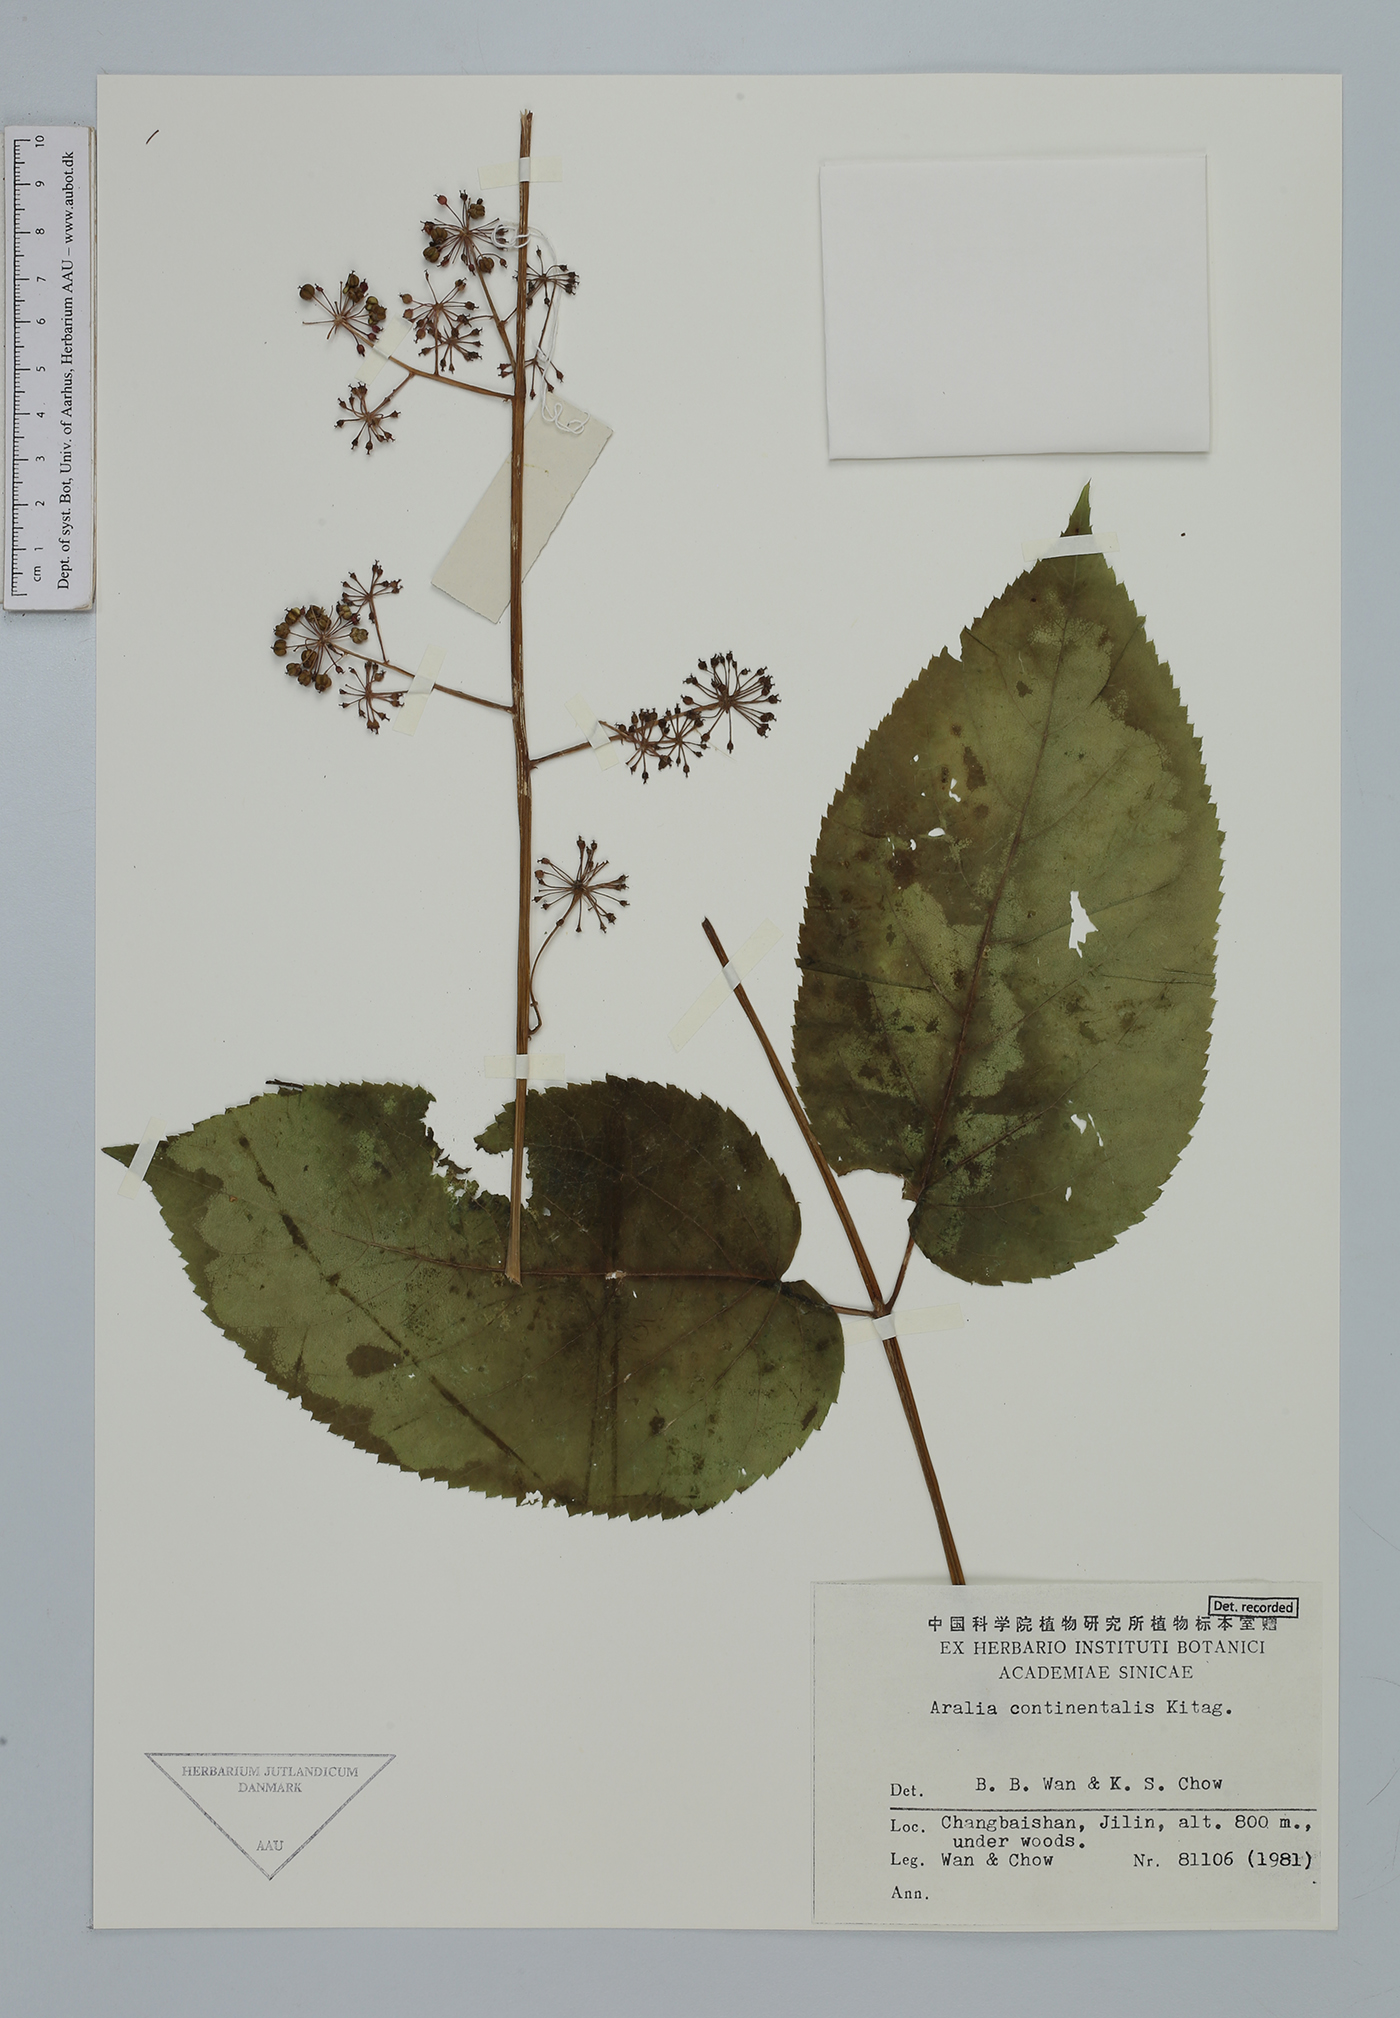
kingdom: Plantae
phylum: Tracheophyta
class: Magnoliopsida
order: Apiales
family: Araliaceae
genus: Aralia
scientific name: Aralia continentalis
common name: Manchurian-spikenard
